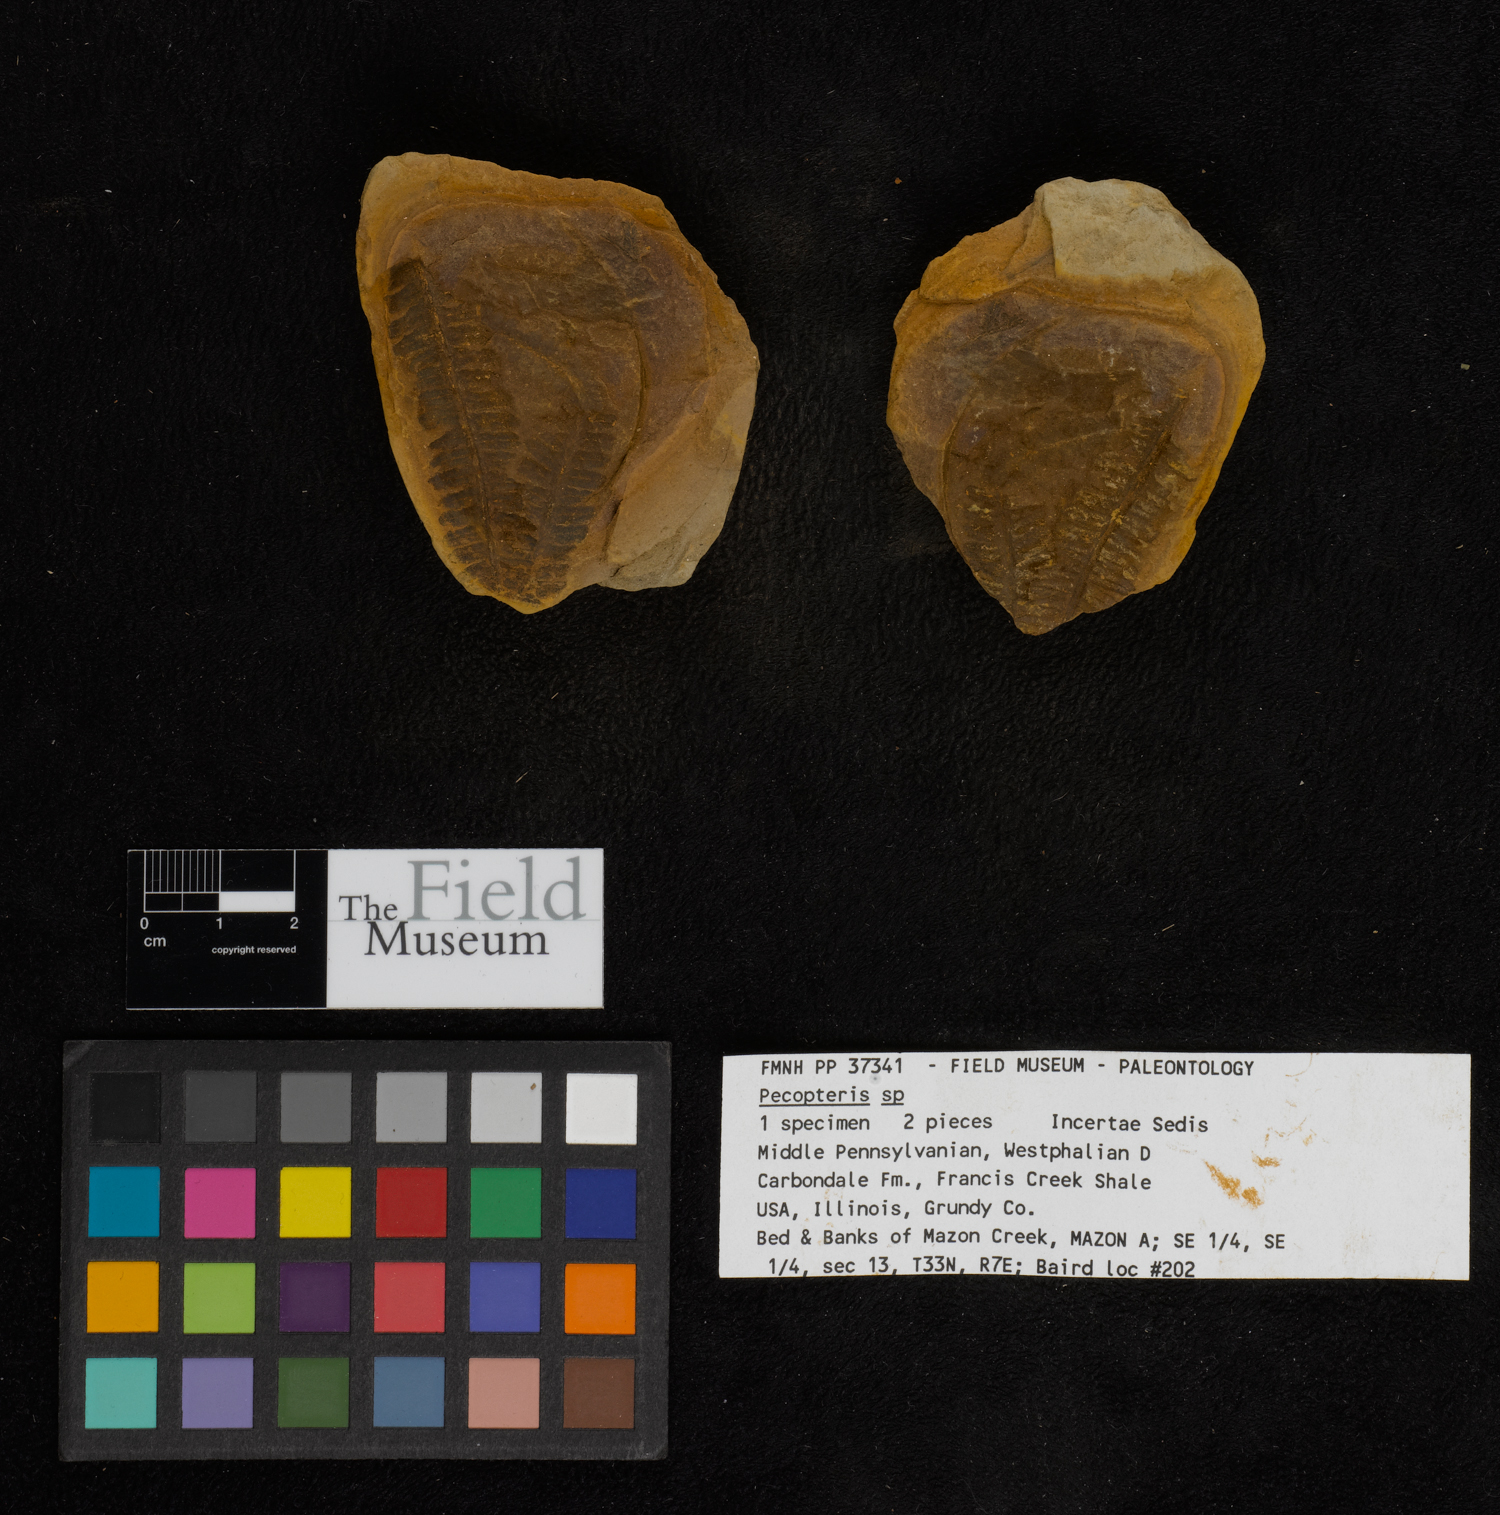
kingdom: Plantae
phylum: Tracheophyta
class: Polypodiopsida
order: Marattiales
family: Asterothecaceae
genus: Pecopteris
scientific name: Pecopteris
